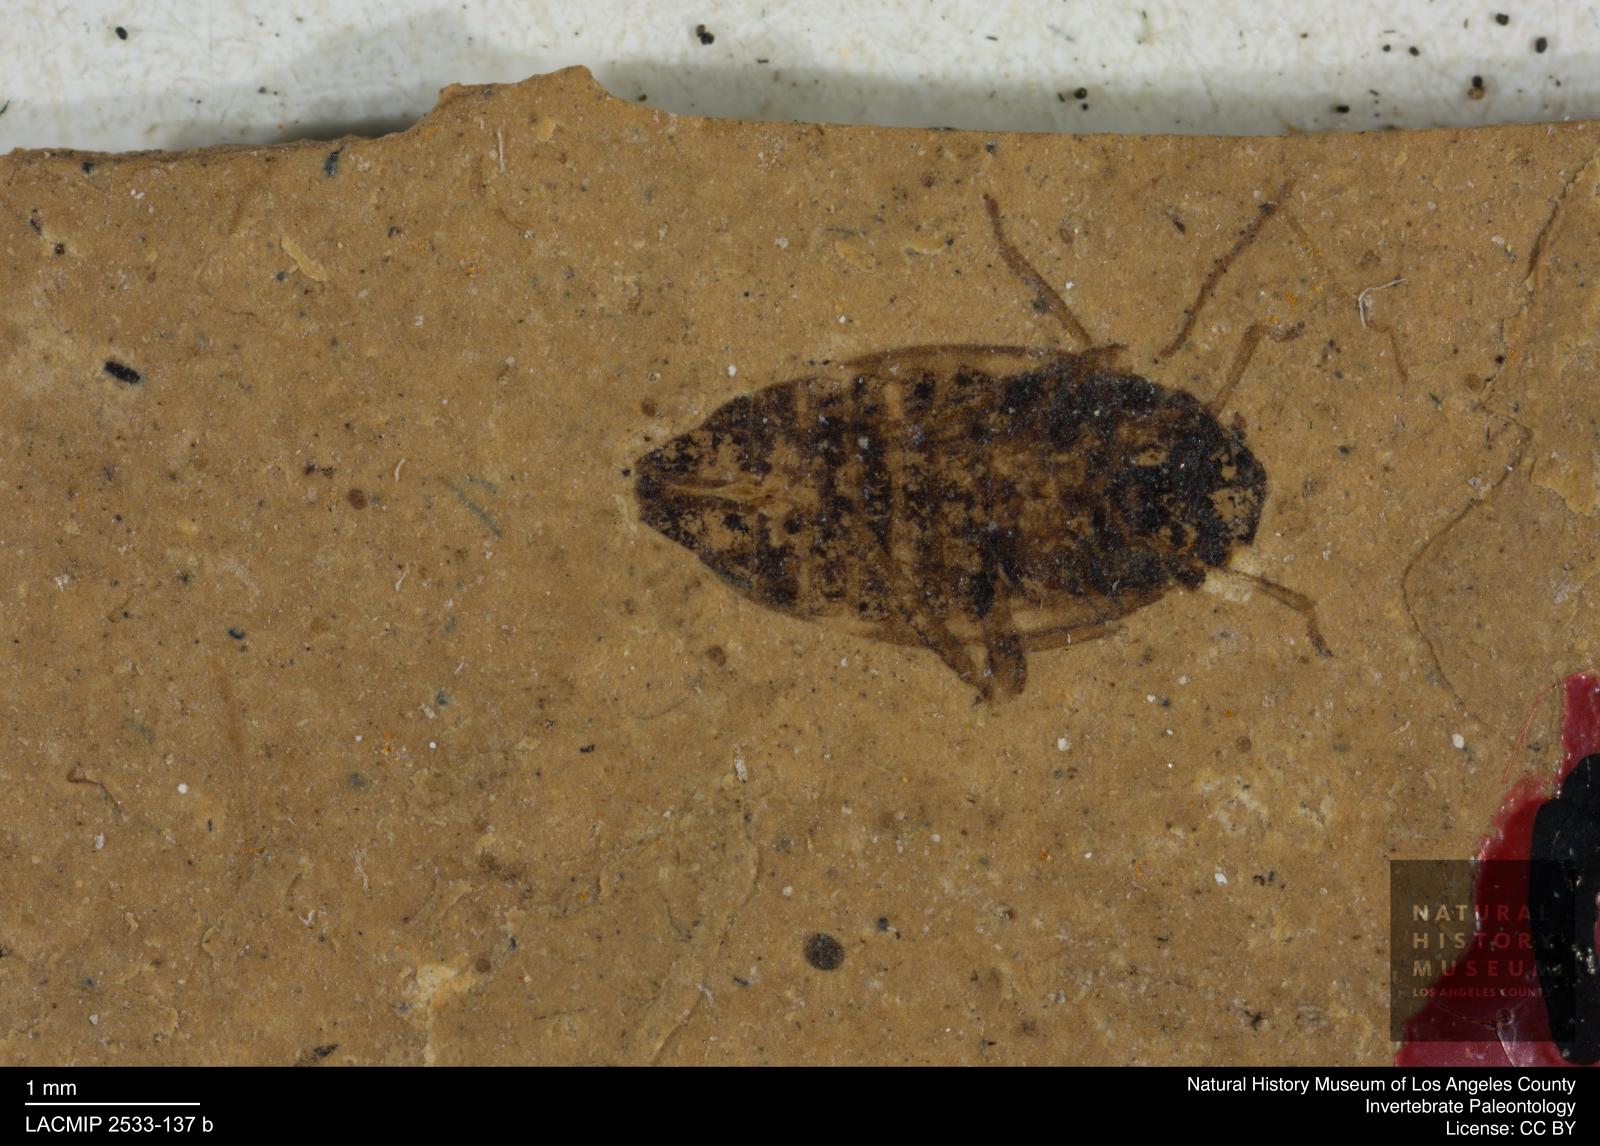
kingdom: Animalia
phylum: Arthropoda
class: Insecta
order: Hemiptera
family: Delphacidae
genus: Delphax
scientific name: Delphax rhenana
